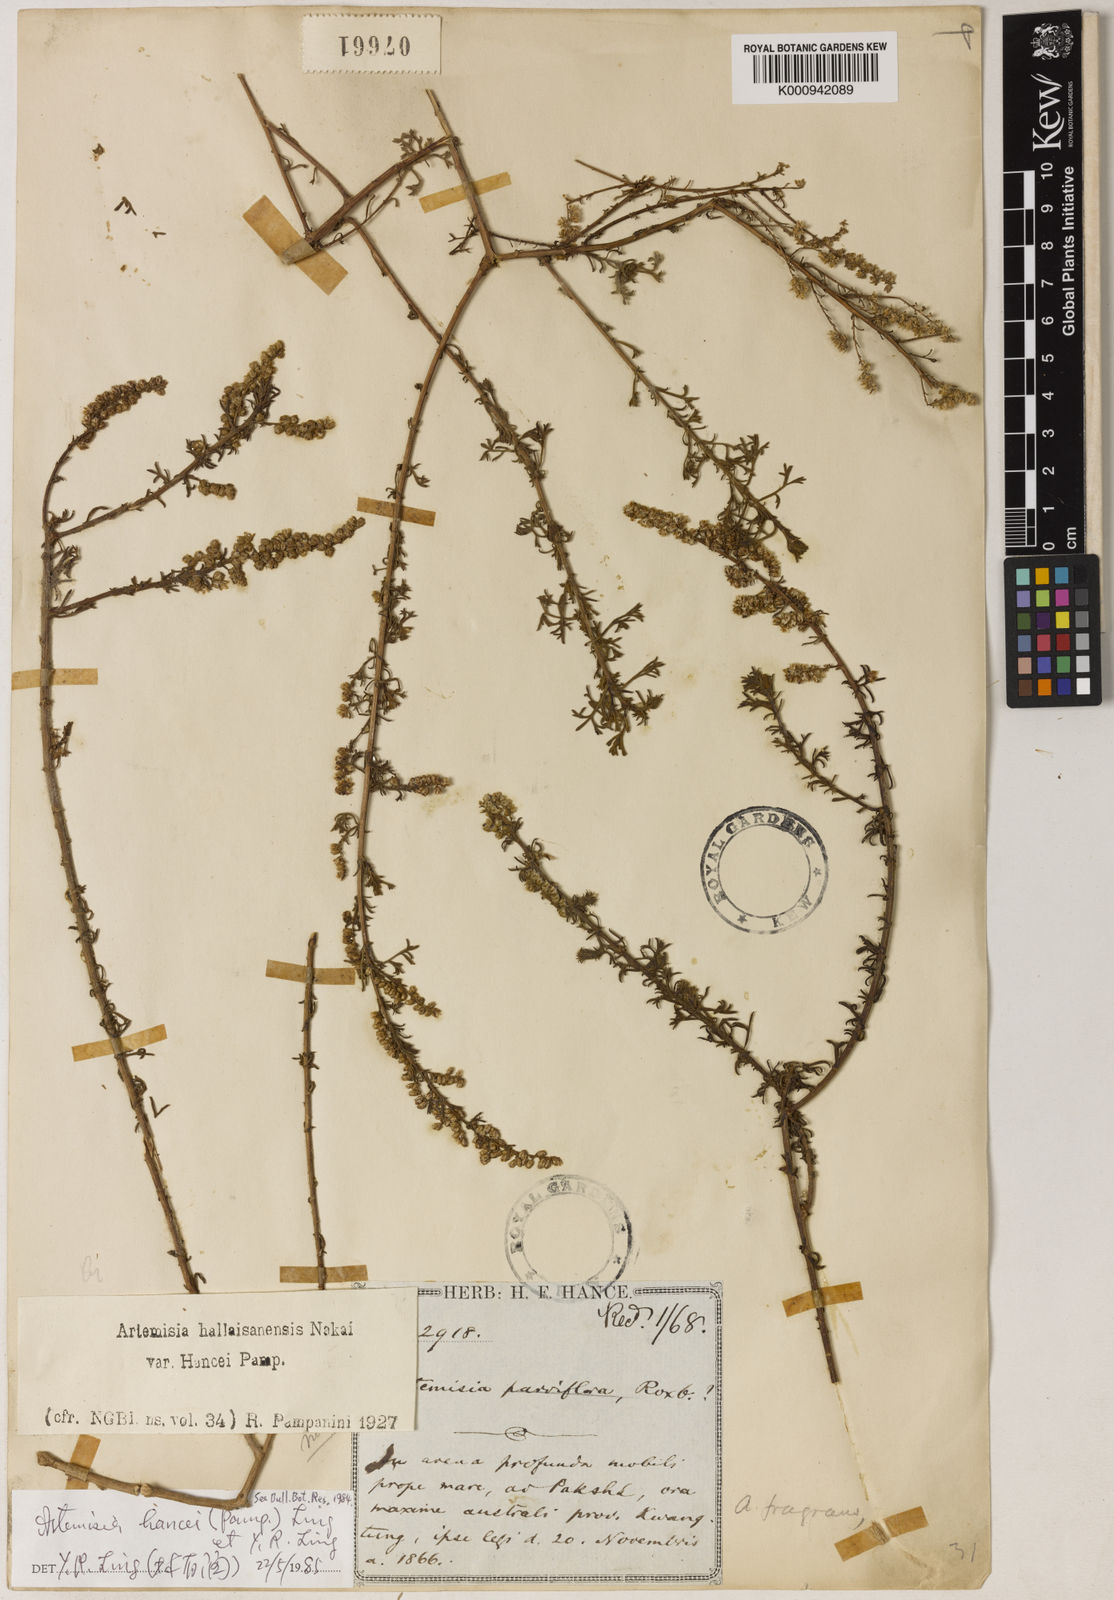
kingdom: Plantae
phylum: Tracheophyta
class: Magnoliopsida
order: Asterales
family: Asteraceae
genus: Artemisia
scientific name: Artemisia hancei
